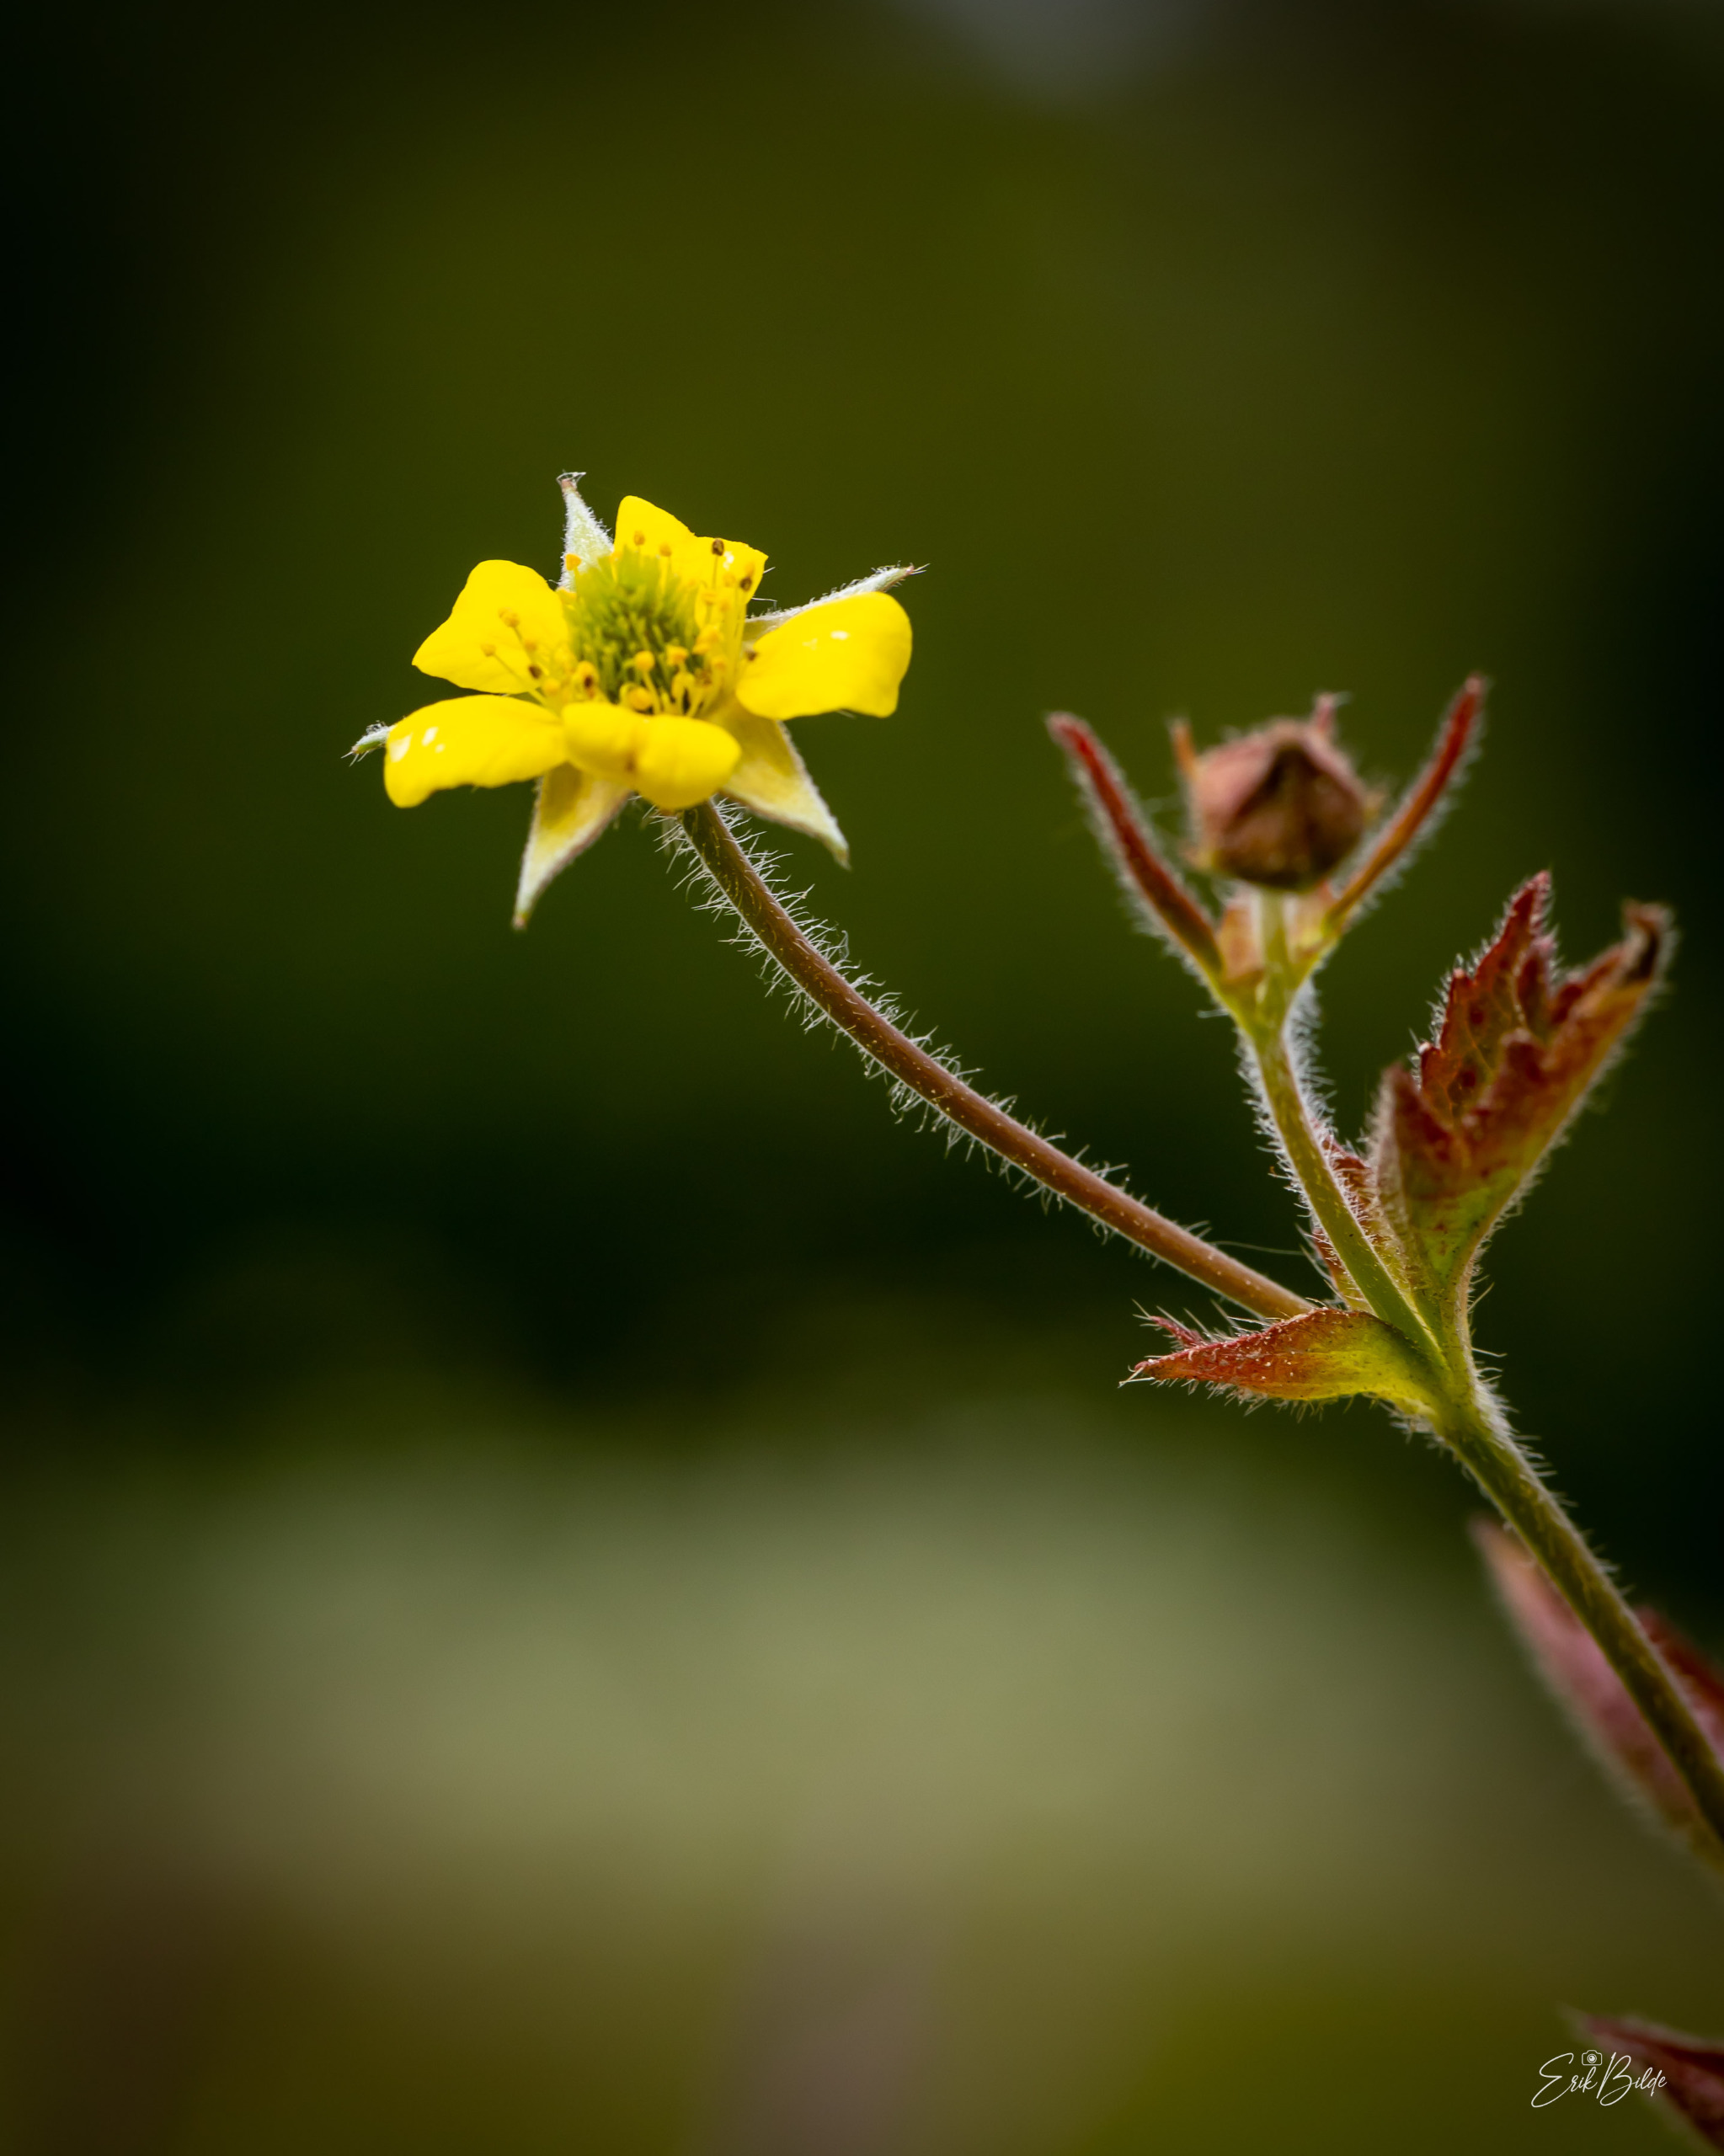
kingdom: Plantae
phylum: Tracheophyta
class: Magnoliopsida
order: Rosales
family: Rosaceae
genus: Geum
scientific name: Geum urbanum
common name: Feber-nellikerod
